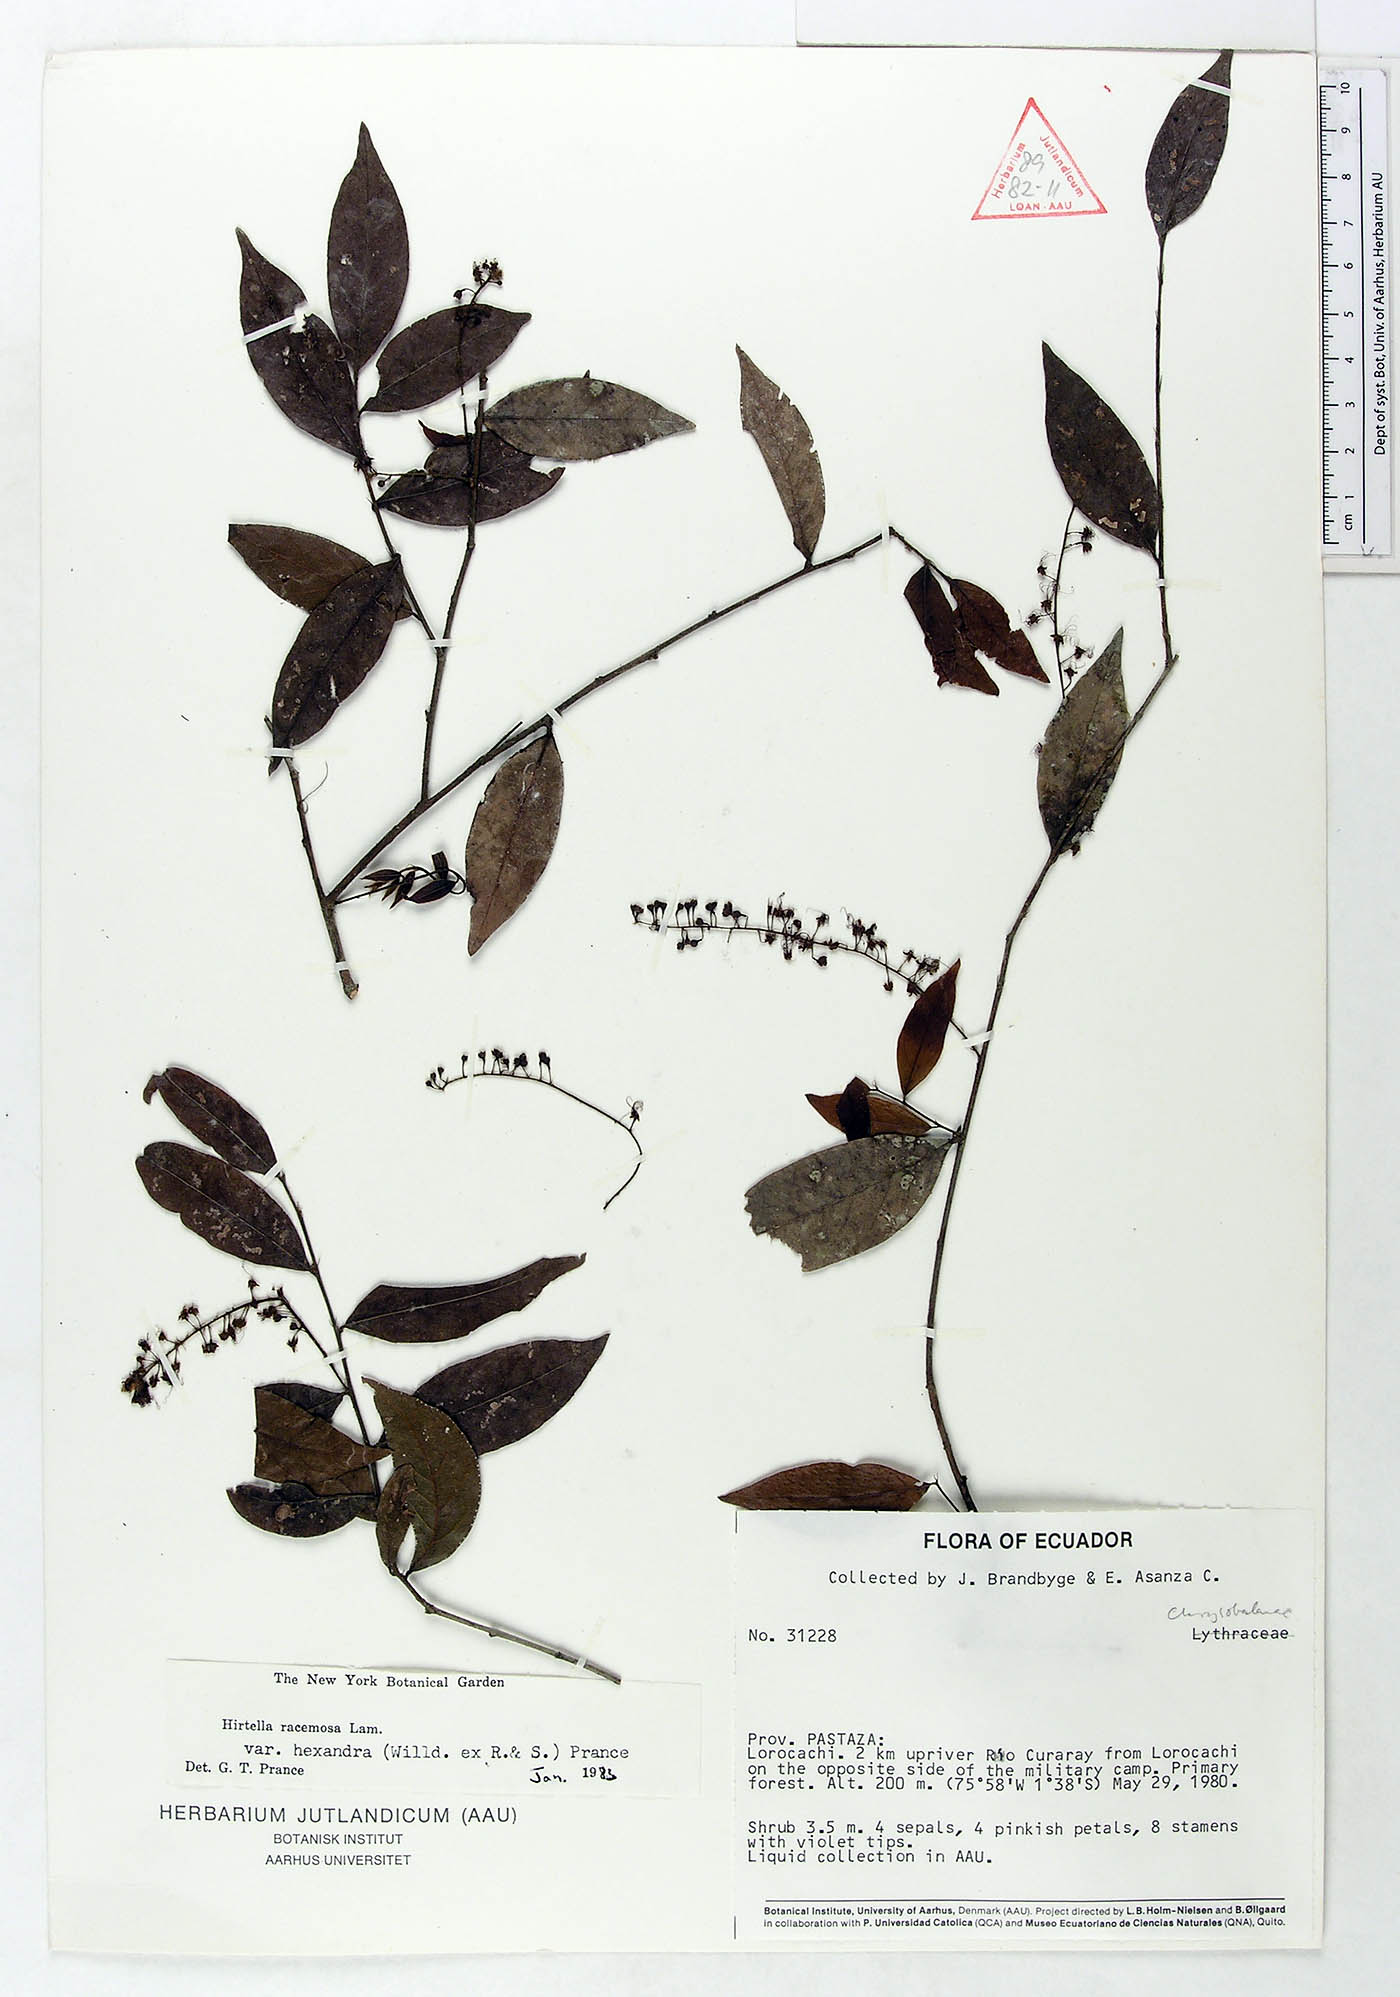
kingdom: Plantae
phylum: Tracheophyta
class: Magnoliopsida
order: Malpighiales
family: Chrysobalanaceae
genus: Hirtella
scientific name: Hirtella racemosa
